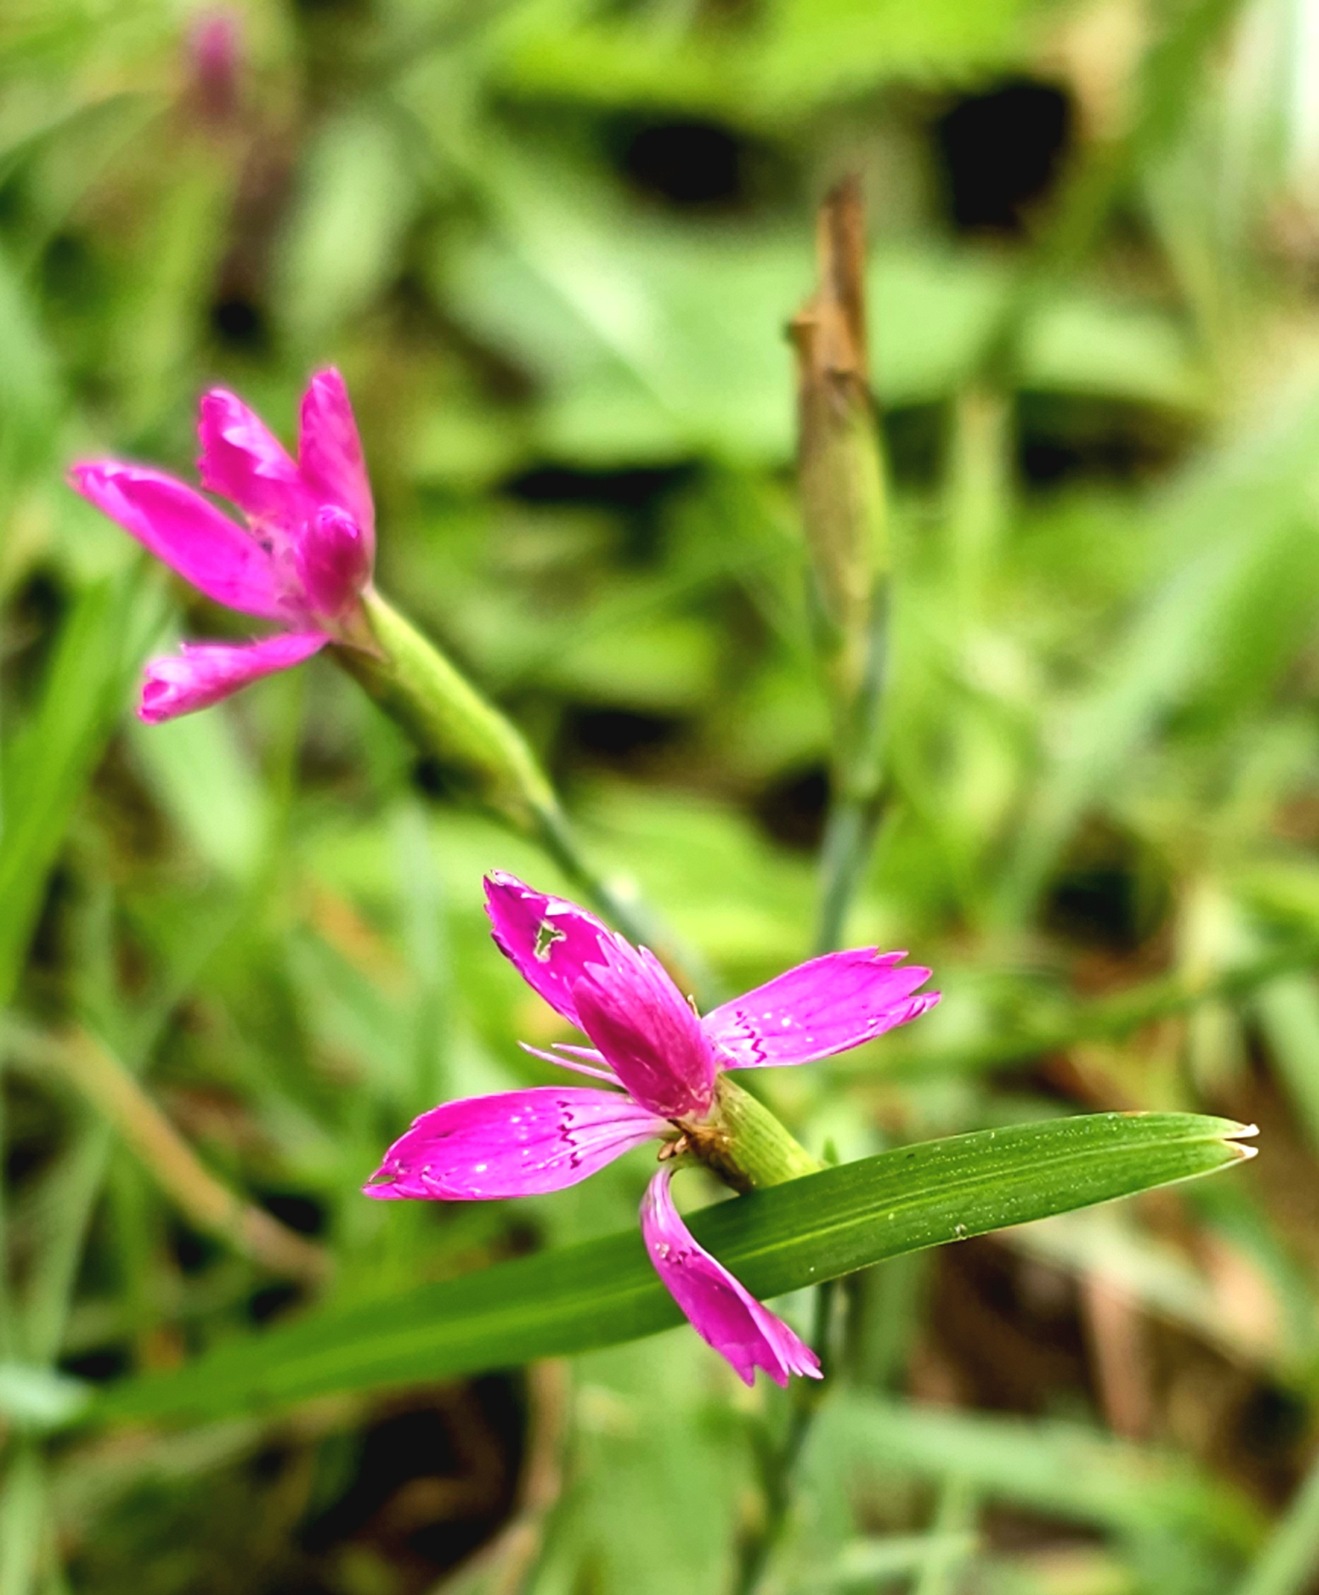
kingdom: Plantae
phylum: Tracheophyta
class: Magnoliopsida
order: Caryophyllales
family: Caryophyllaceae
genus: Dianthus
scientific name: Dianthus deltoides
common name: Bakke-nellike
